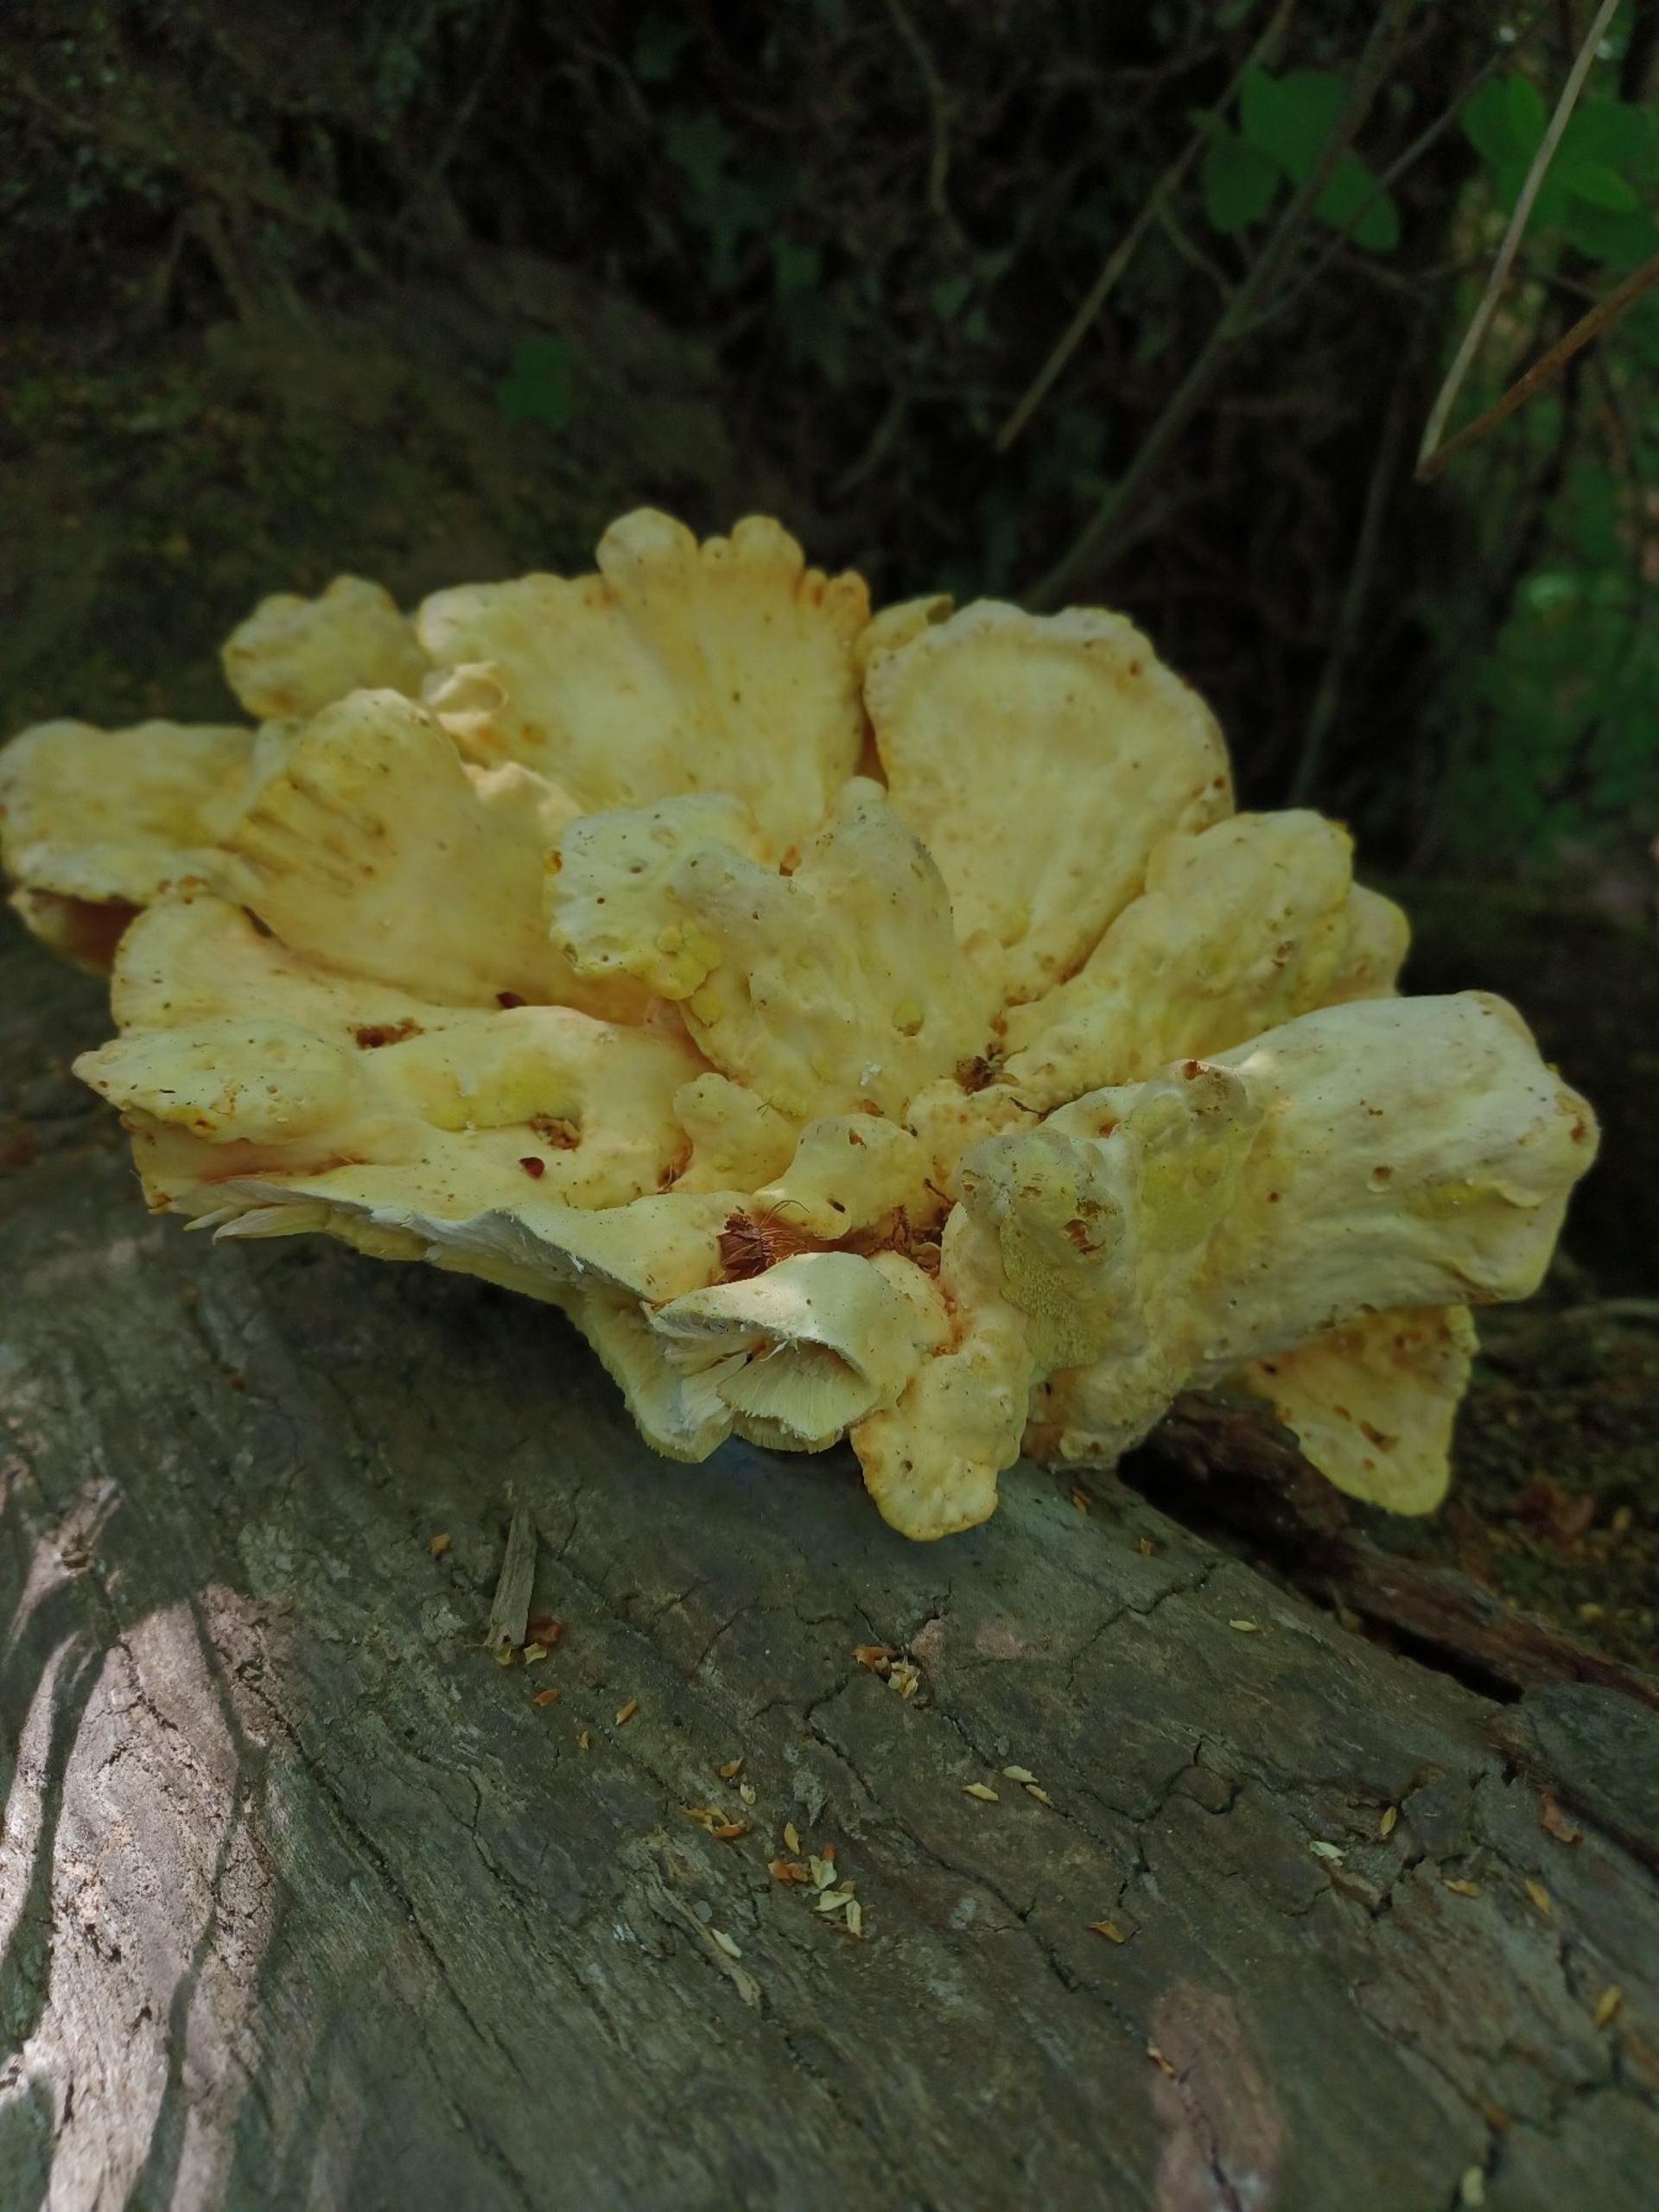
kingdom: Fungi
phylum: Basidiomycota
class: Agaricomycetes
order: Polyporales
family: Laetiporaceae
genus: Laetiporus
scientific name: Laetiporus
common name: Svovlporesvamp
